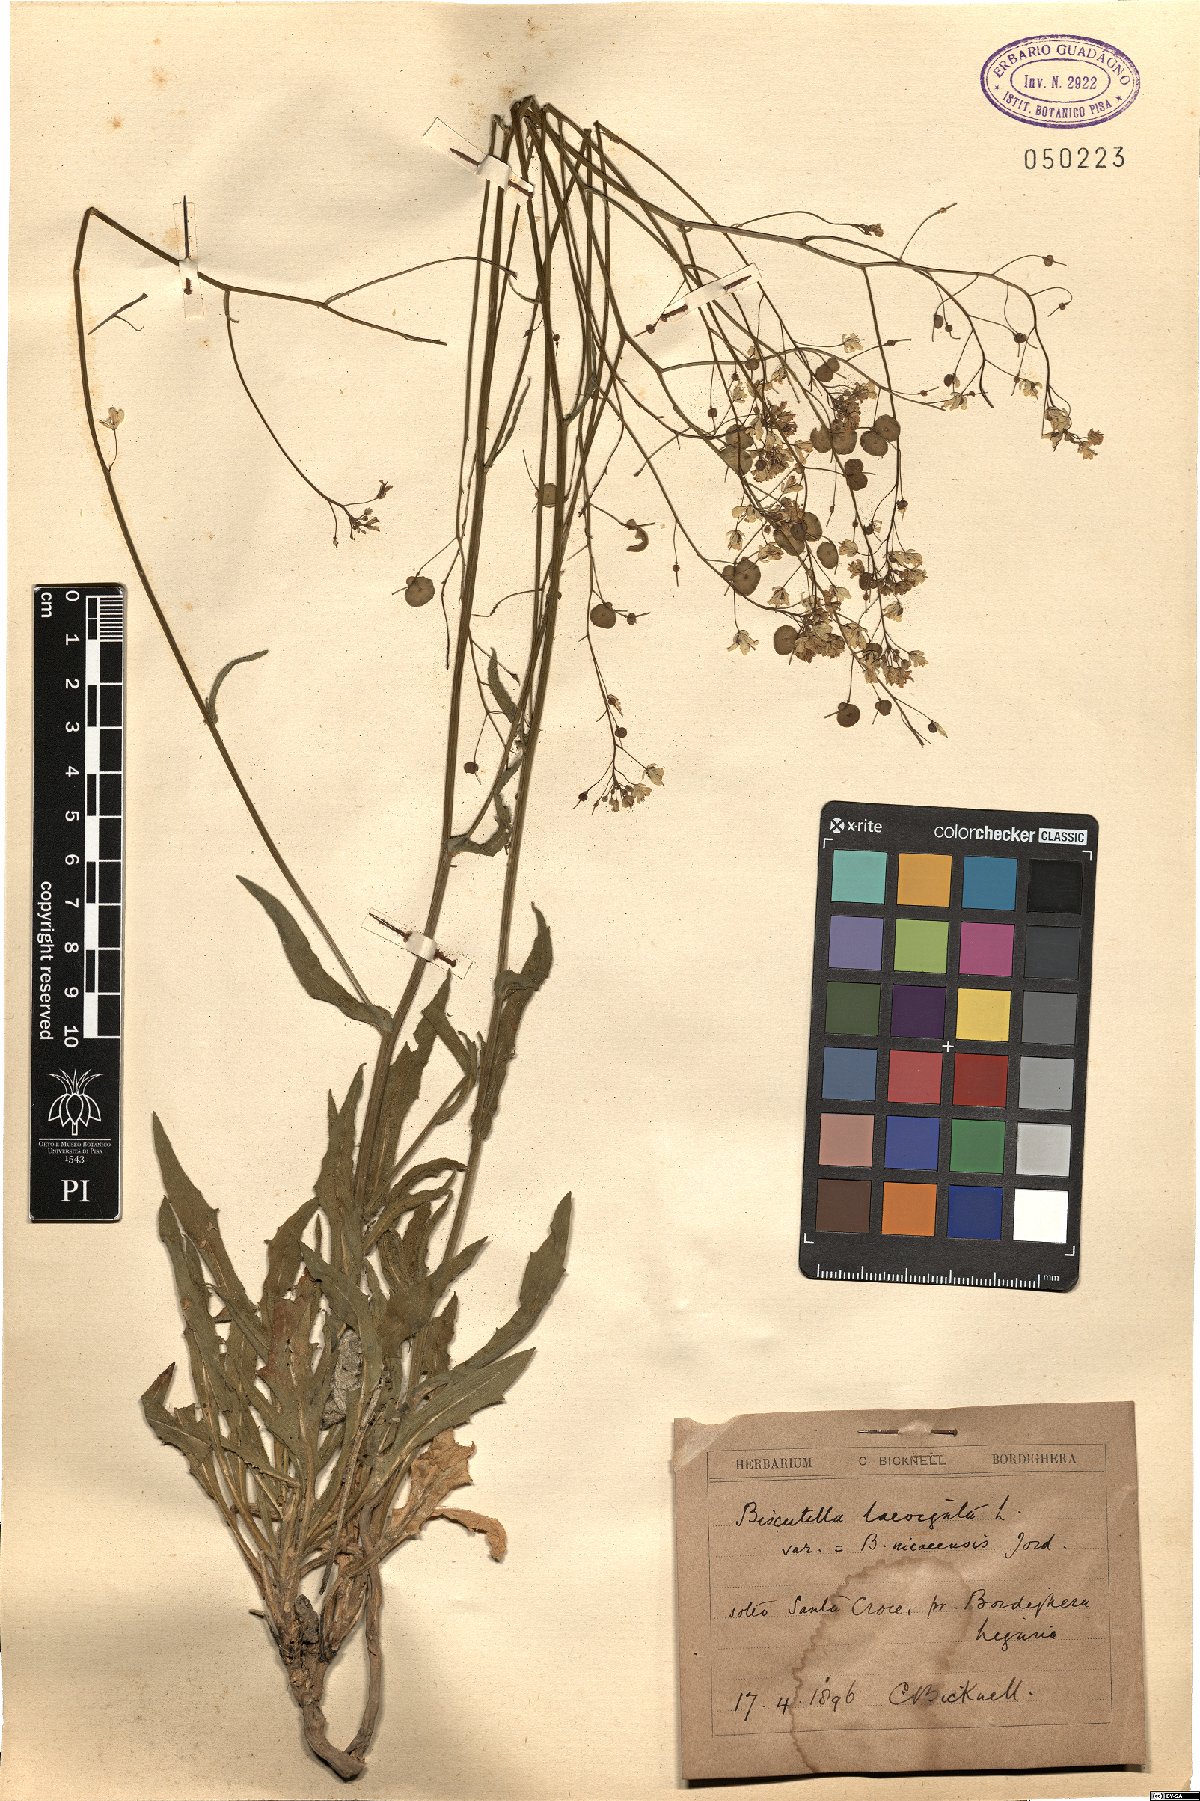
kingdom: Plantae
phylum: Tracheophyta
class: Magnoliopsida
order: Brassicales
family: Brassicaceae
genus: Biscutella
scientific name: Biscutella laevigata
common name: Buckler mustard
